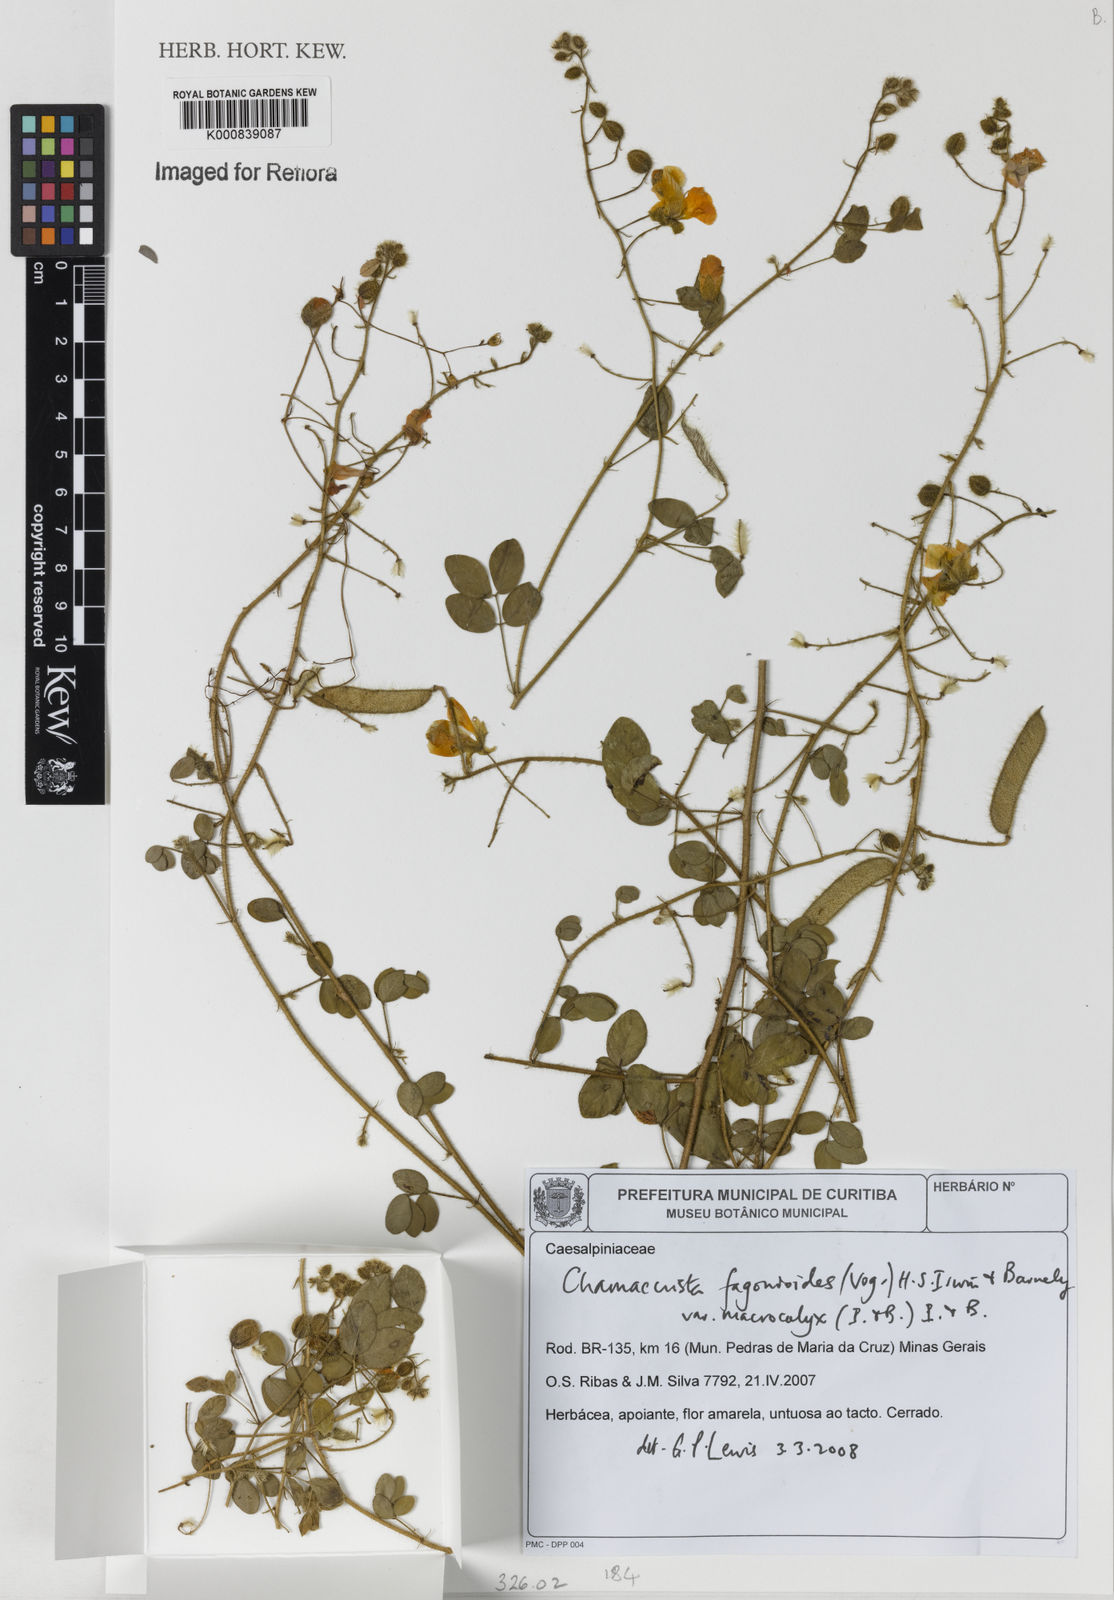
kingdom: Plantae
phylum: Tracheophyta
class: Magnoliopsida
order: Fabales
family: Fabaceae
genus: Chamaecrista
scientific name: Chamaecrista fagonioides
